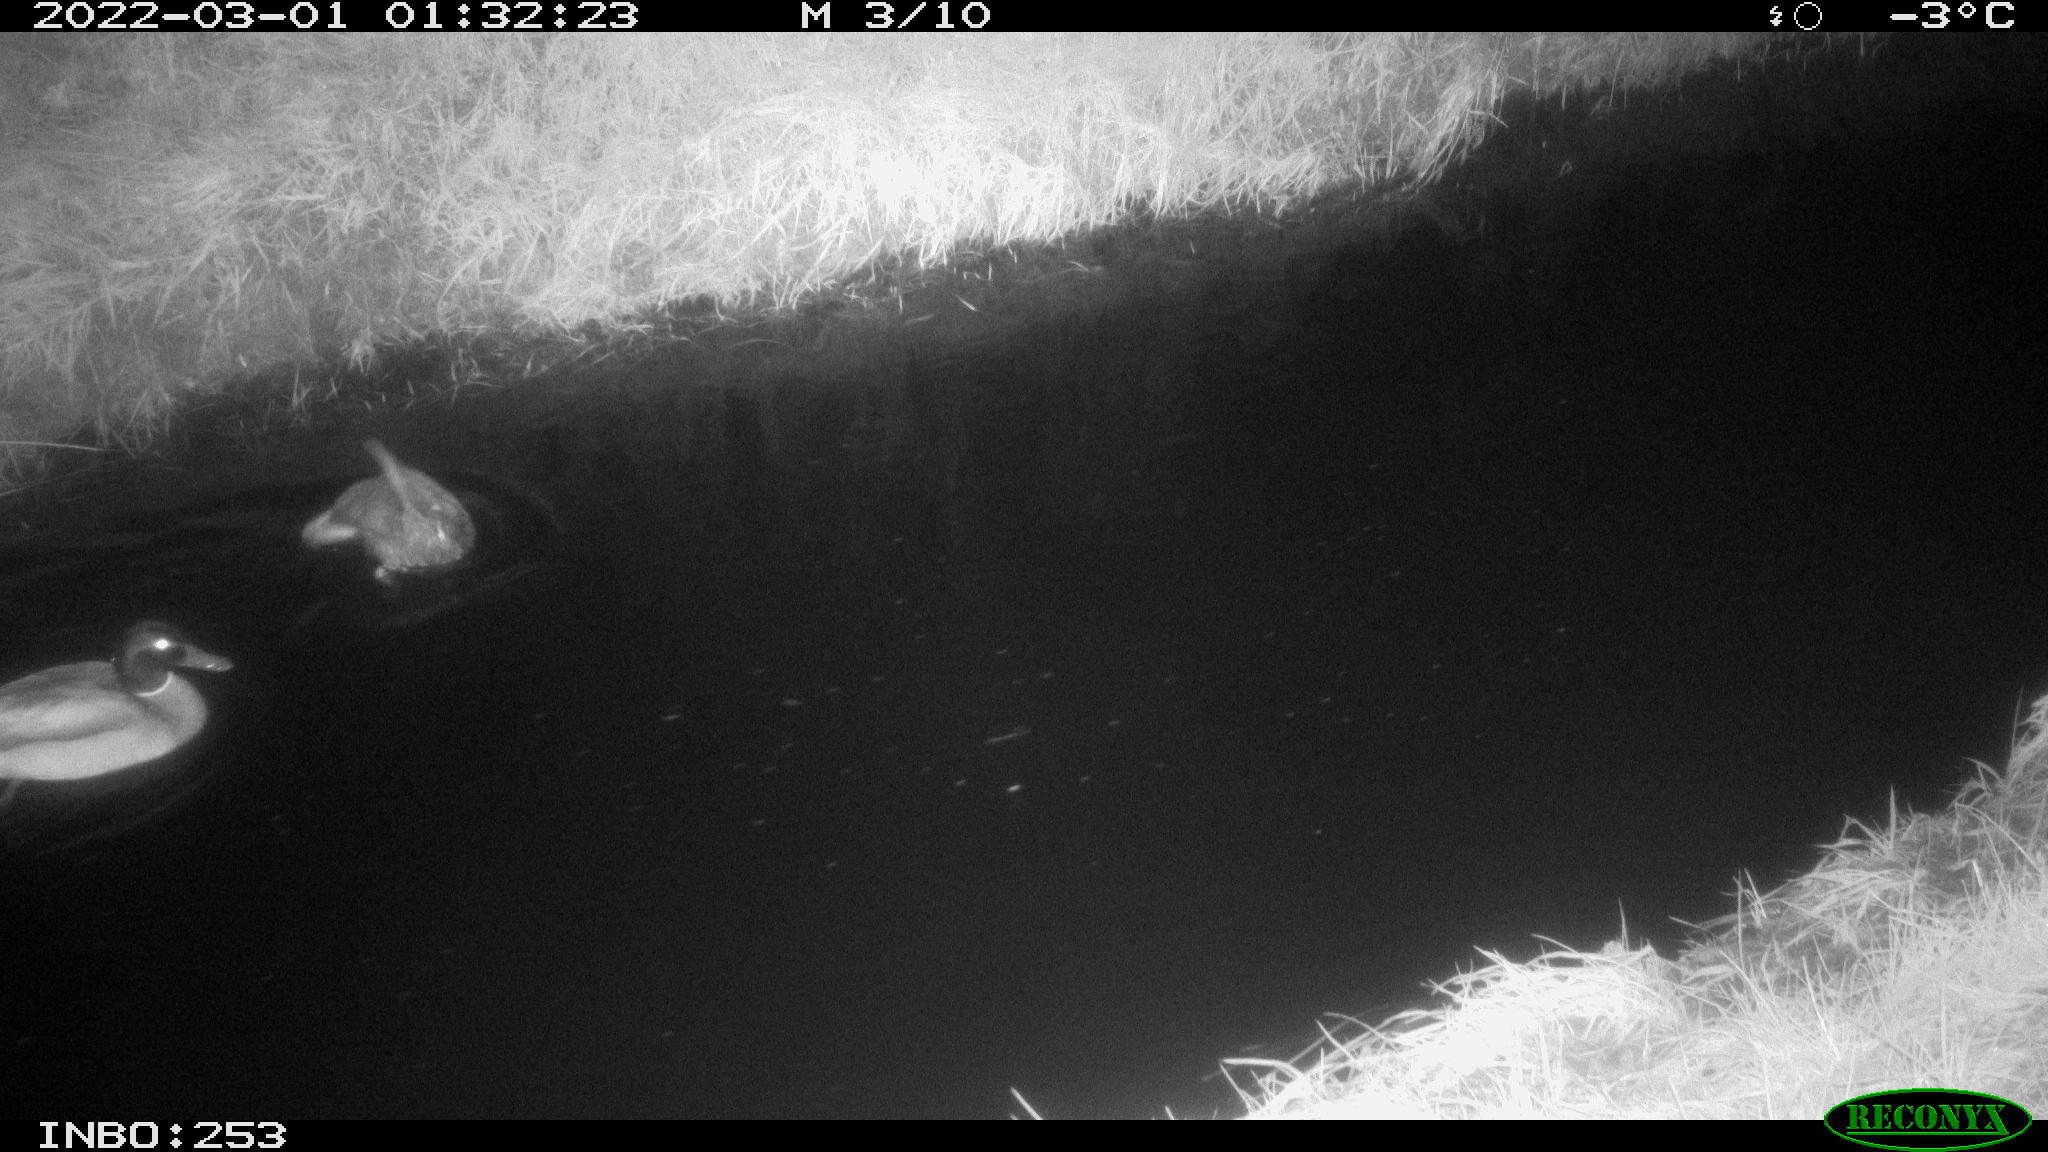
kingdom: Animalia
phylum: Chordata
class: Aves
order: Anseriformes
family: Anatidae
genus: Anas
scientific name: Anas platyrhynchos
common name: Mallard
